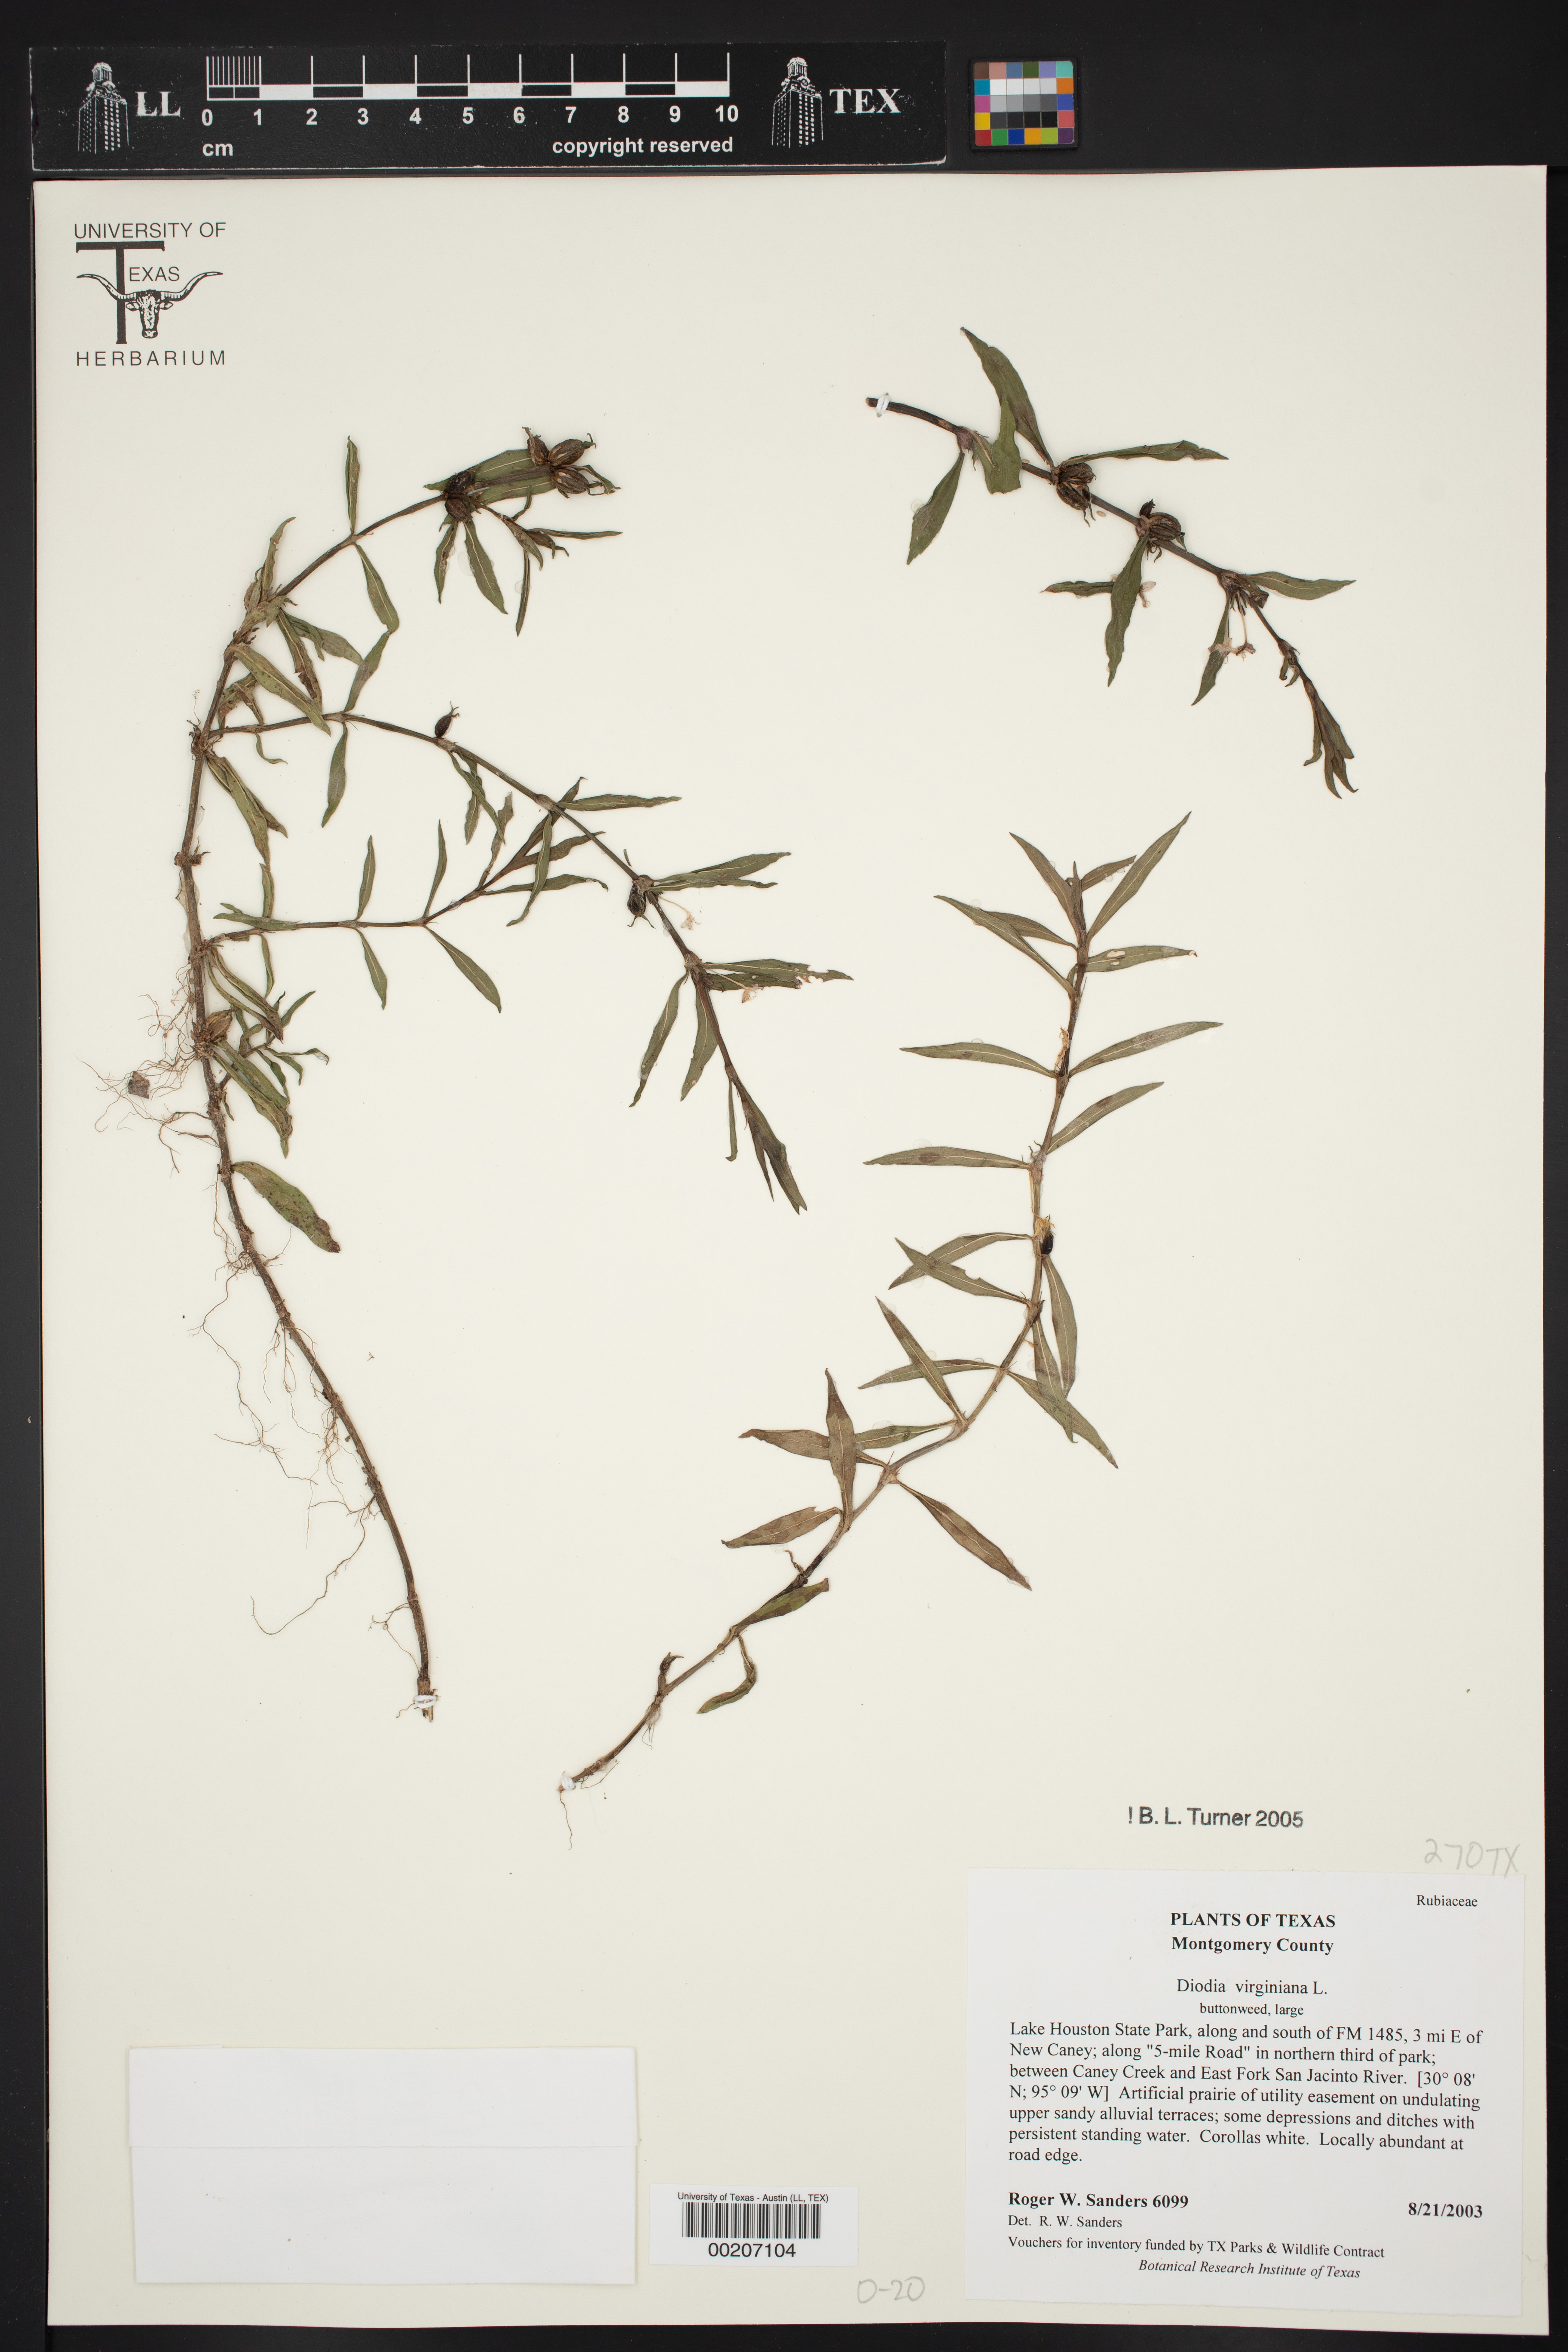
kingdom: Plantae
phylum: Tracheophyta
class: Magnoliopsida
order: Gentianales
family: Rubiaceae
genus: Diodia
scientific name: Diodia virginiana
